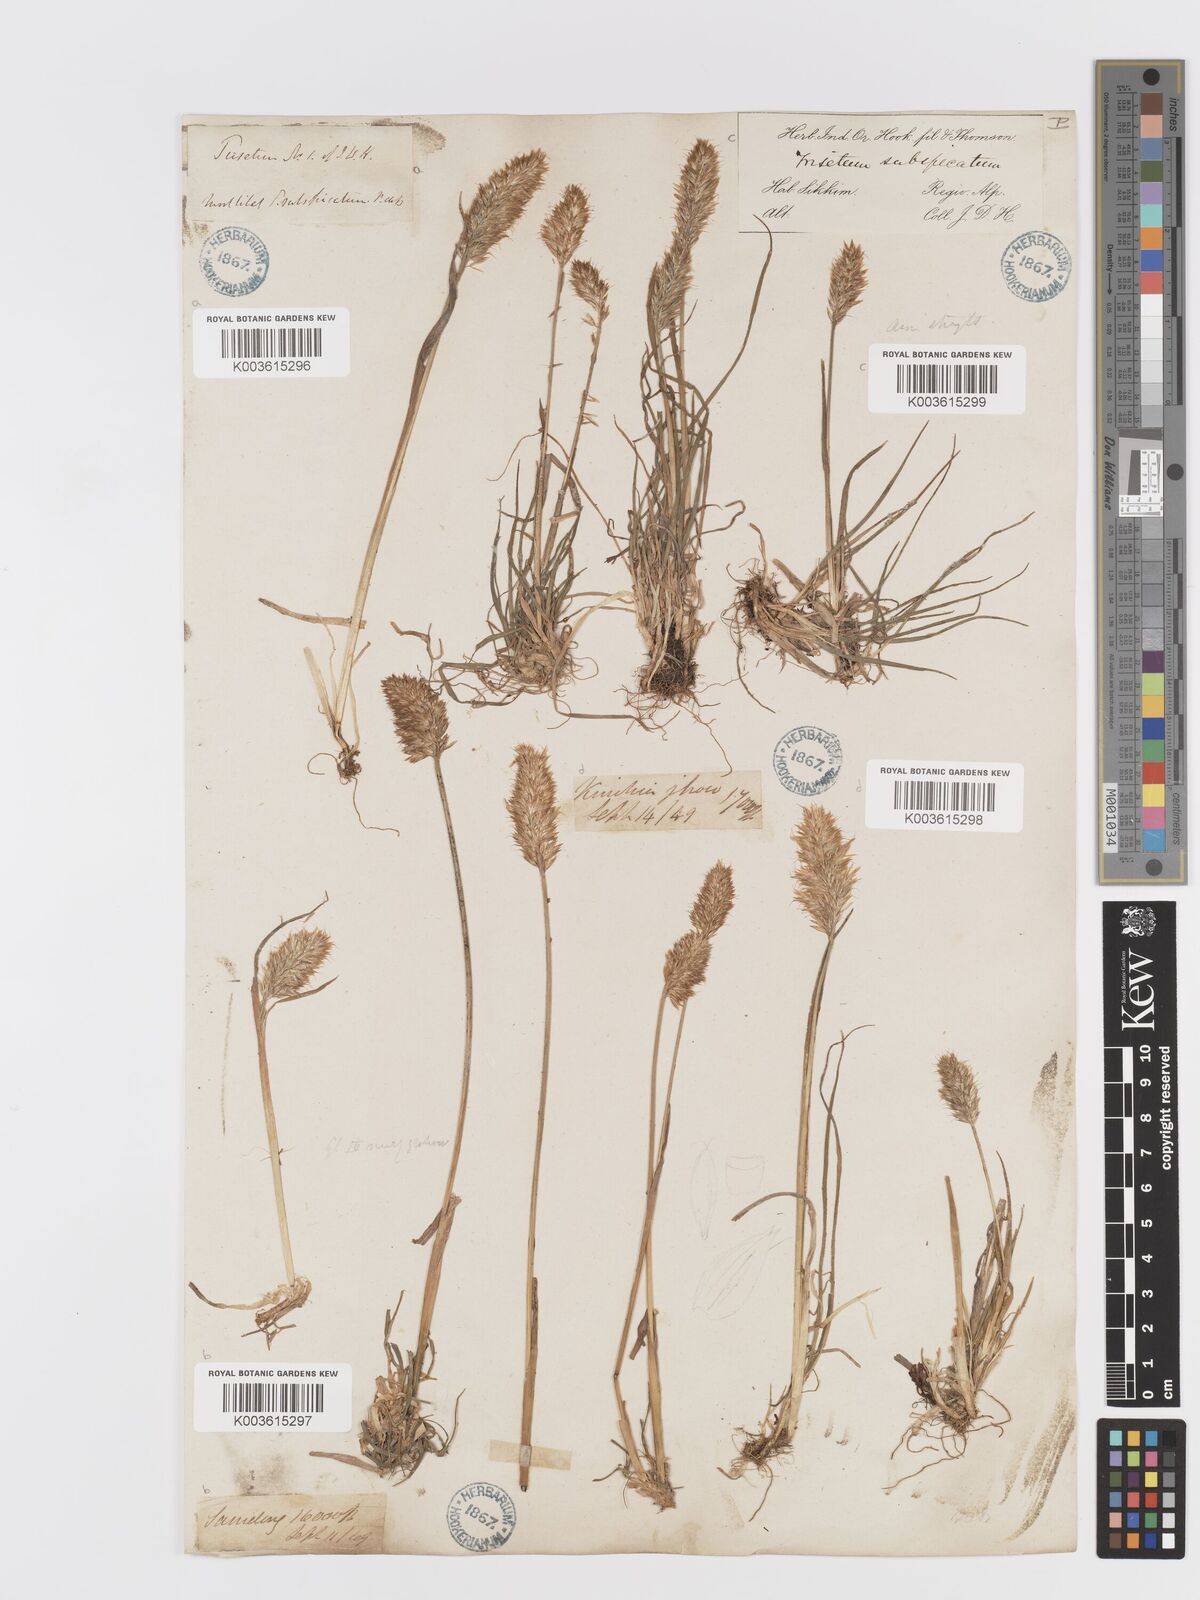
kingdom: Plantae
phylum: Tracheophyta
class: Liliopsida
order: Poales
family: Poaceae
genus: Koeleria
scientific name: Koeleria spicata
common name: Mountain trisetum
